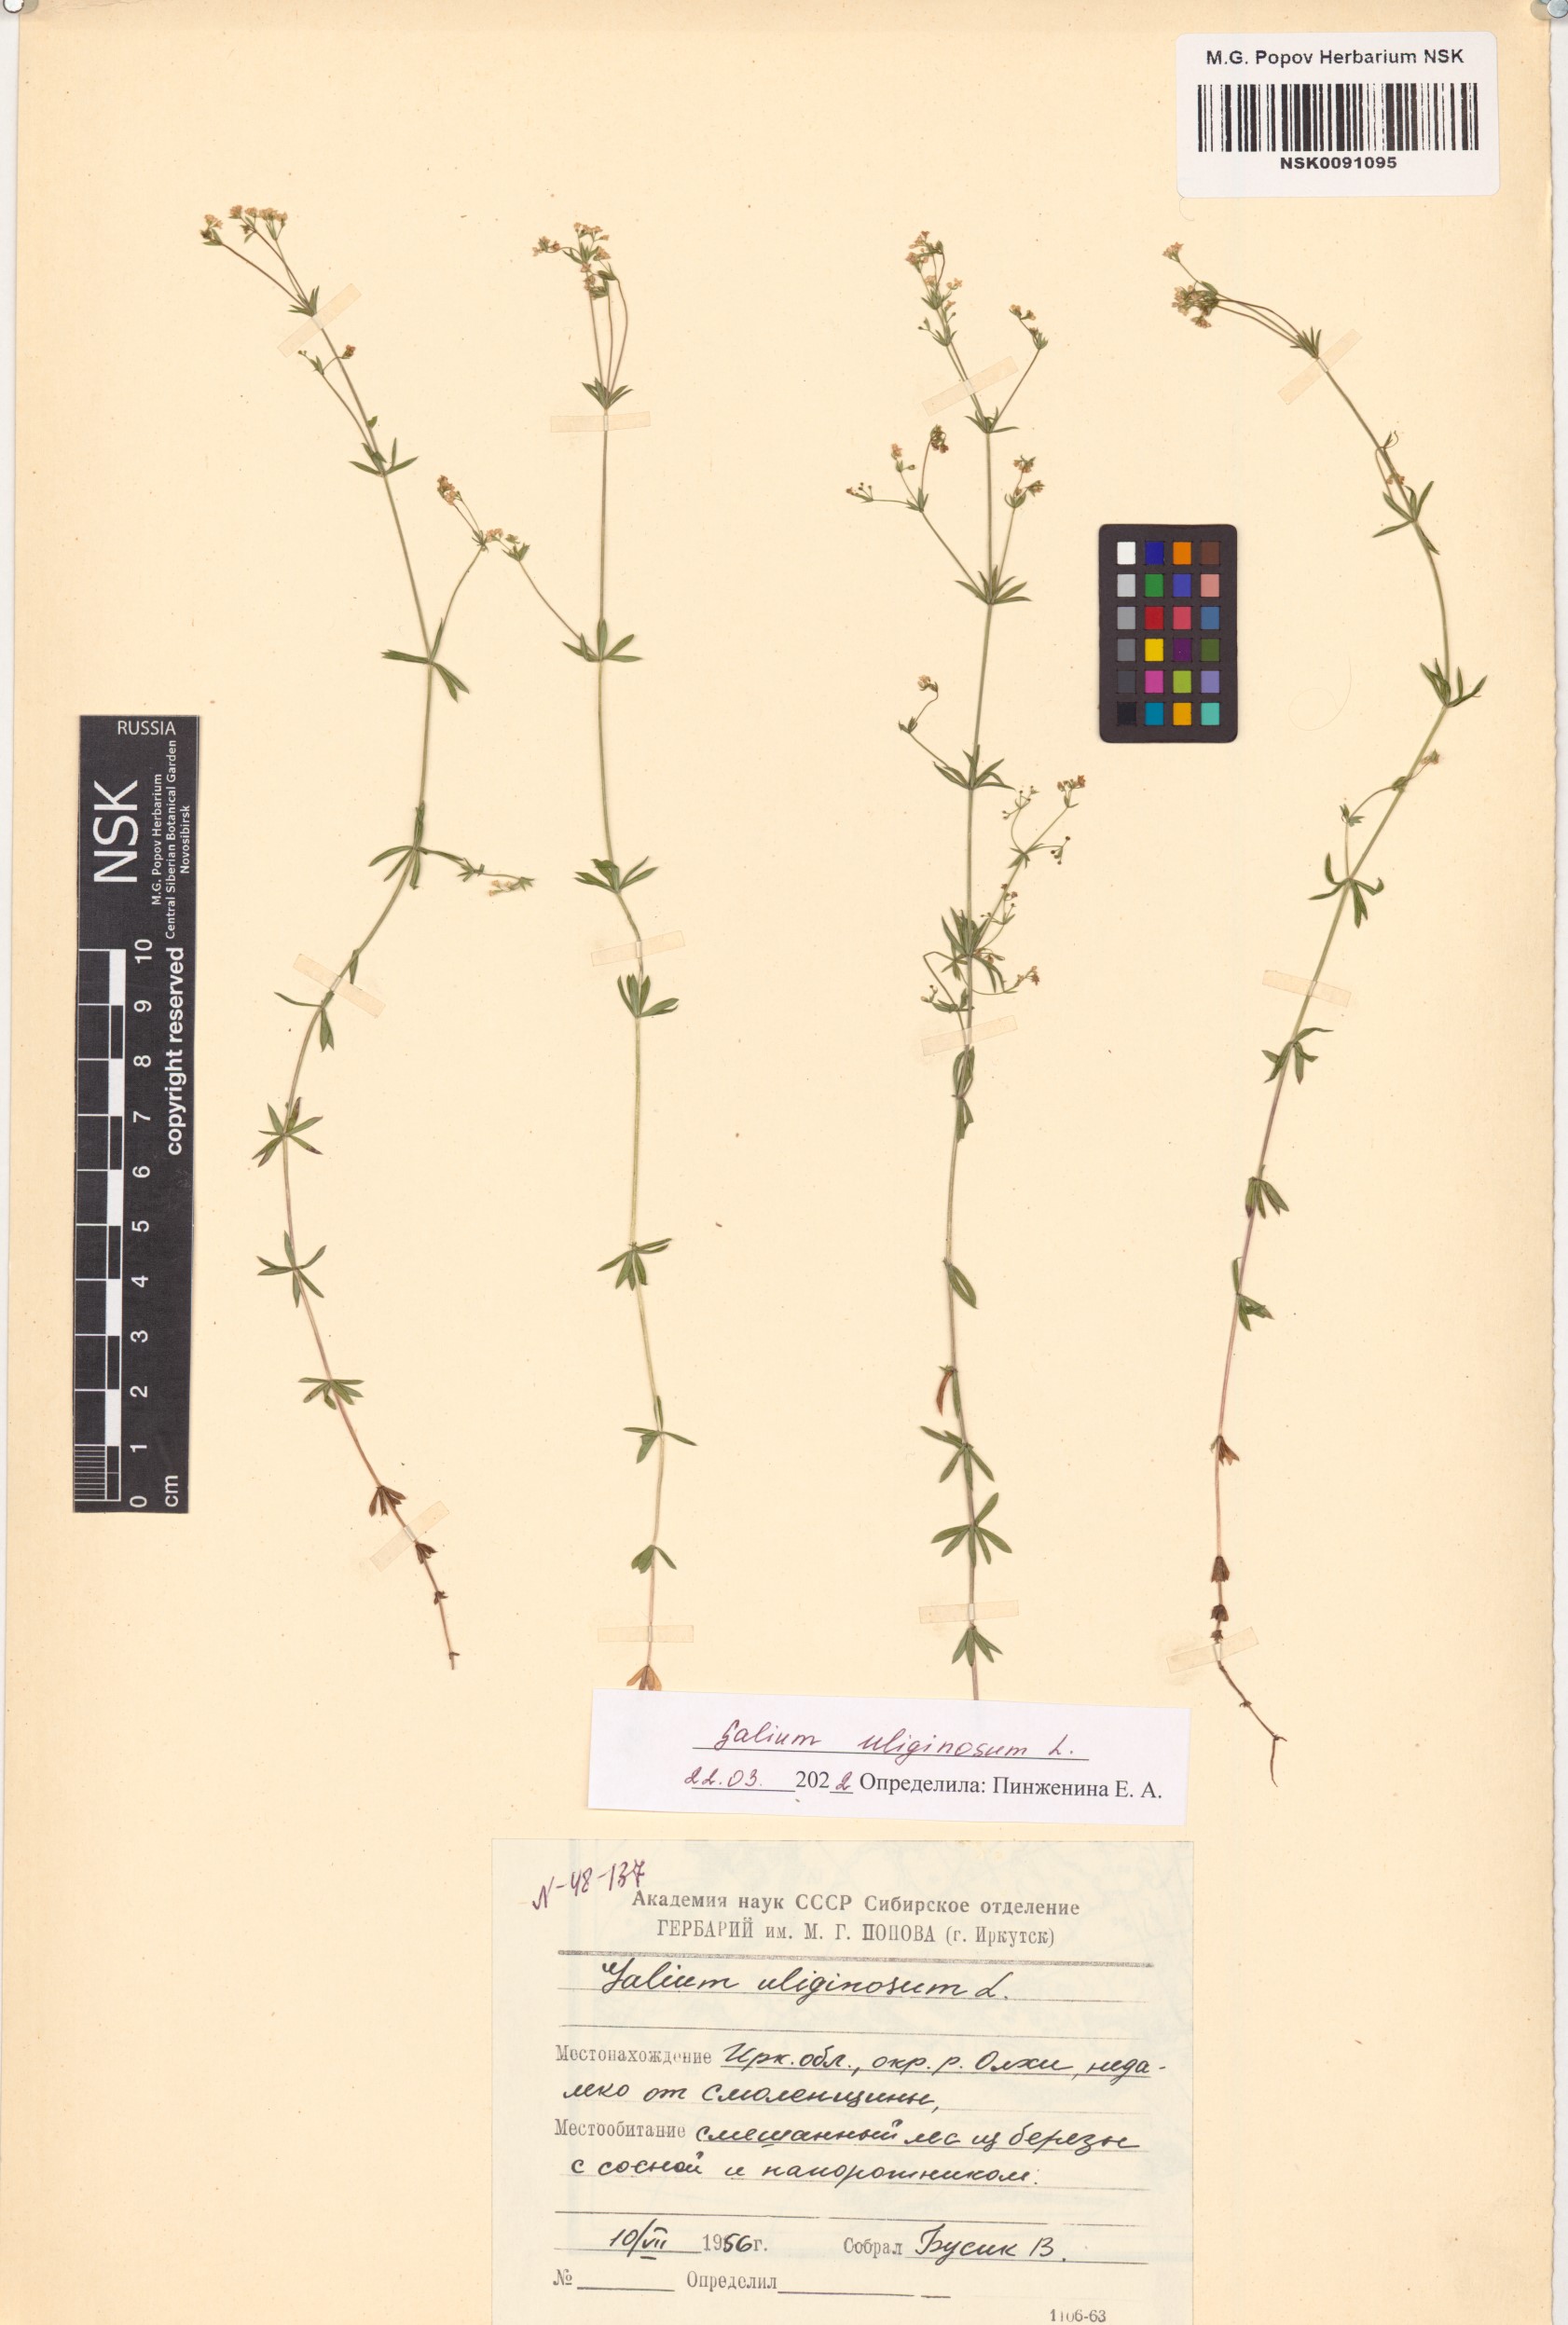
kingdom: Plantae
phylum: Tracheophyta
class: Magnoliopsida
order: Gentianales
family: Rubiaceae
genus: Galium
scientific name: Galium uliginosum
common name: Fen bedstraw
